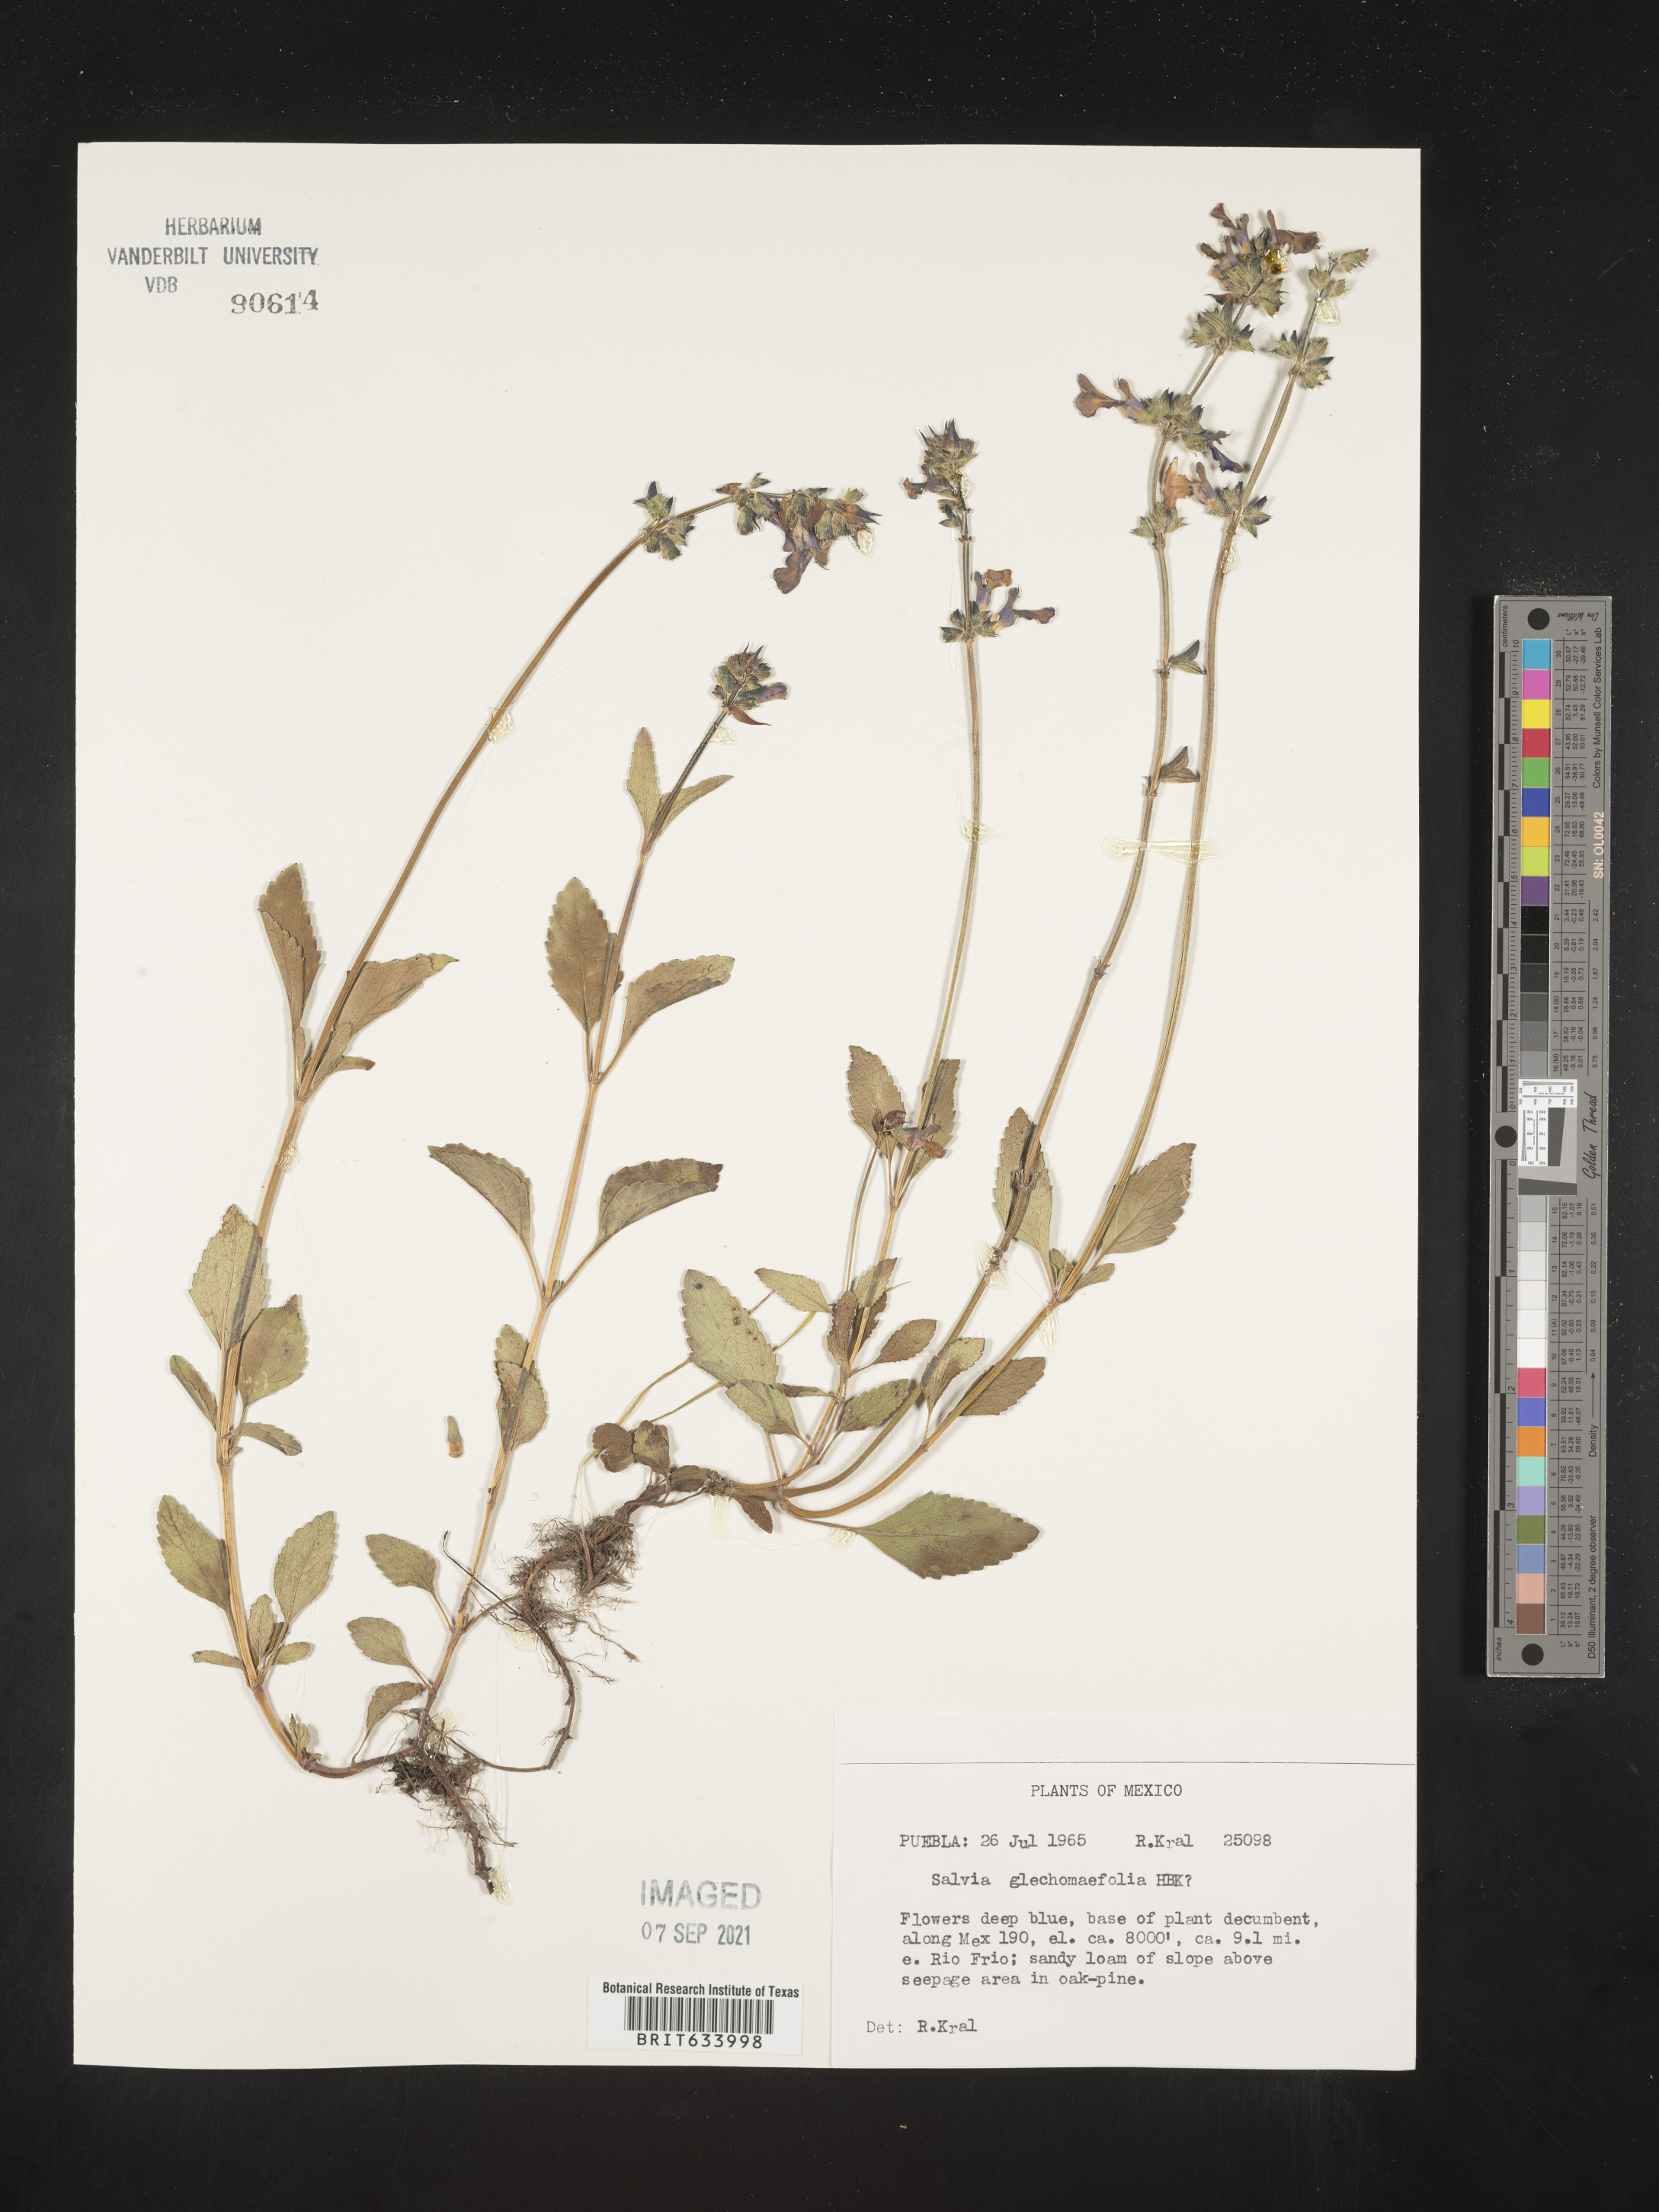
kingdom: Plantae
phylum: Tracheophyta
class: Magnoliopsida
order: Lamiales
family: Lamiaceae
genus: Salvia
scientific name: Salvia
